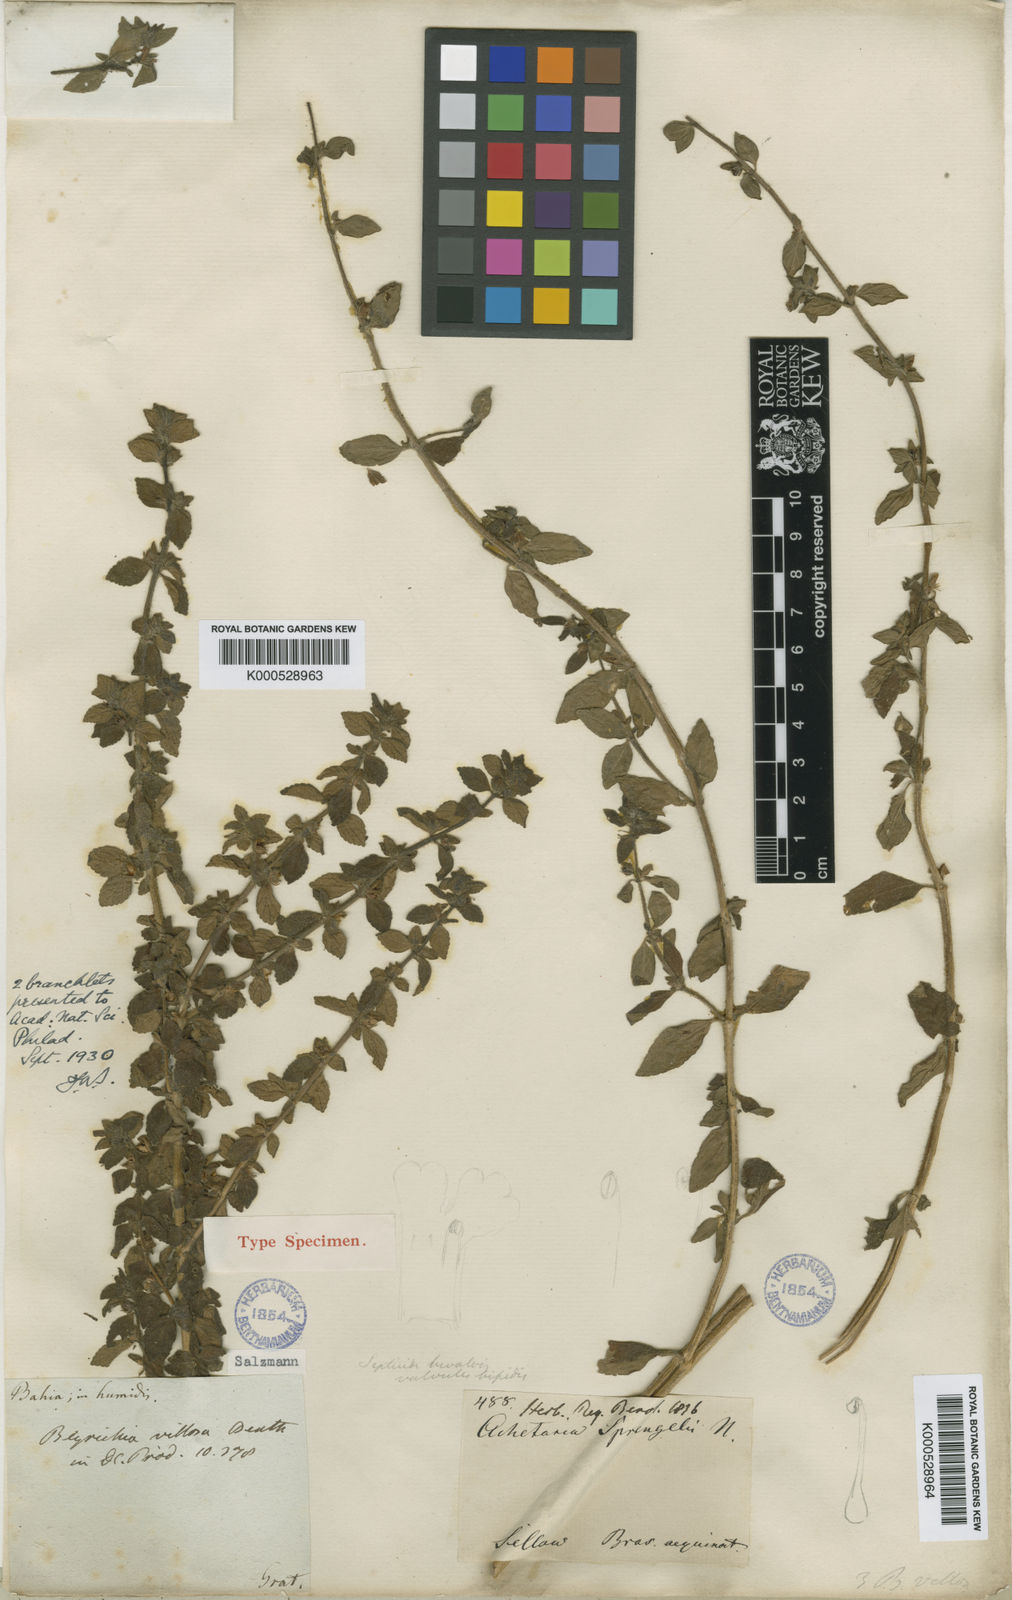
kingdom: Plantae
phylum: Tracheophyta
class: Magnoliopsida
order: Lamiales
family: Plantaginaceae
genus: Matourea
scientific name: Matourea erecta
